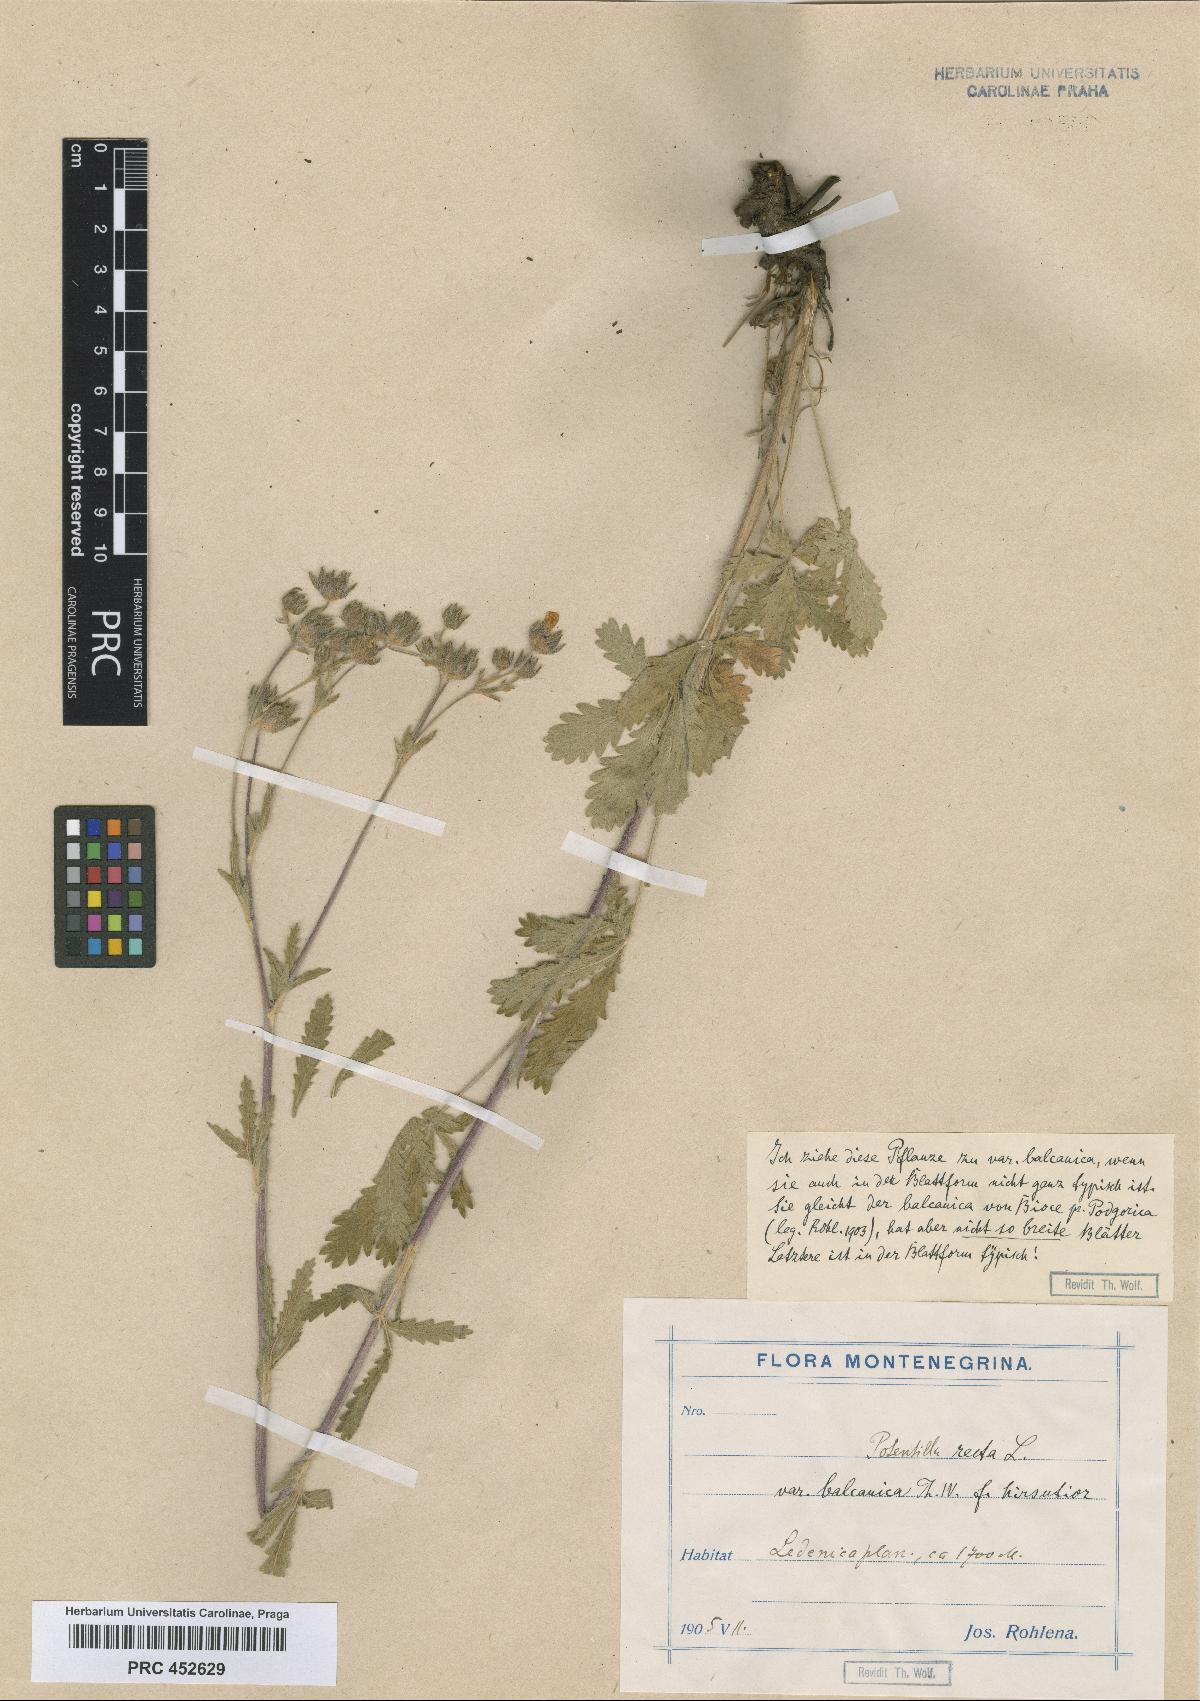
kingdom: Plantae
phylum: Tracheophyta
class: Magnoliopsida
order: Rosales
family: Rosaceae
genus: Potentilla
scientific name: Potentilla recta
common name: Sulphur cinquefoil
